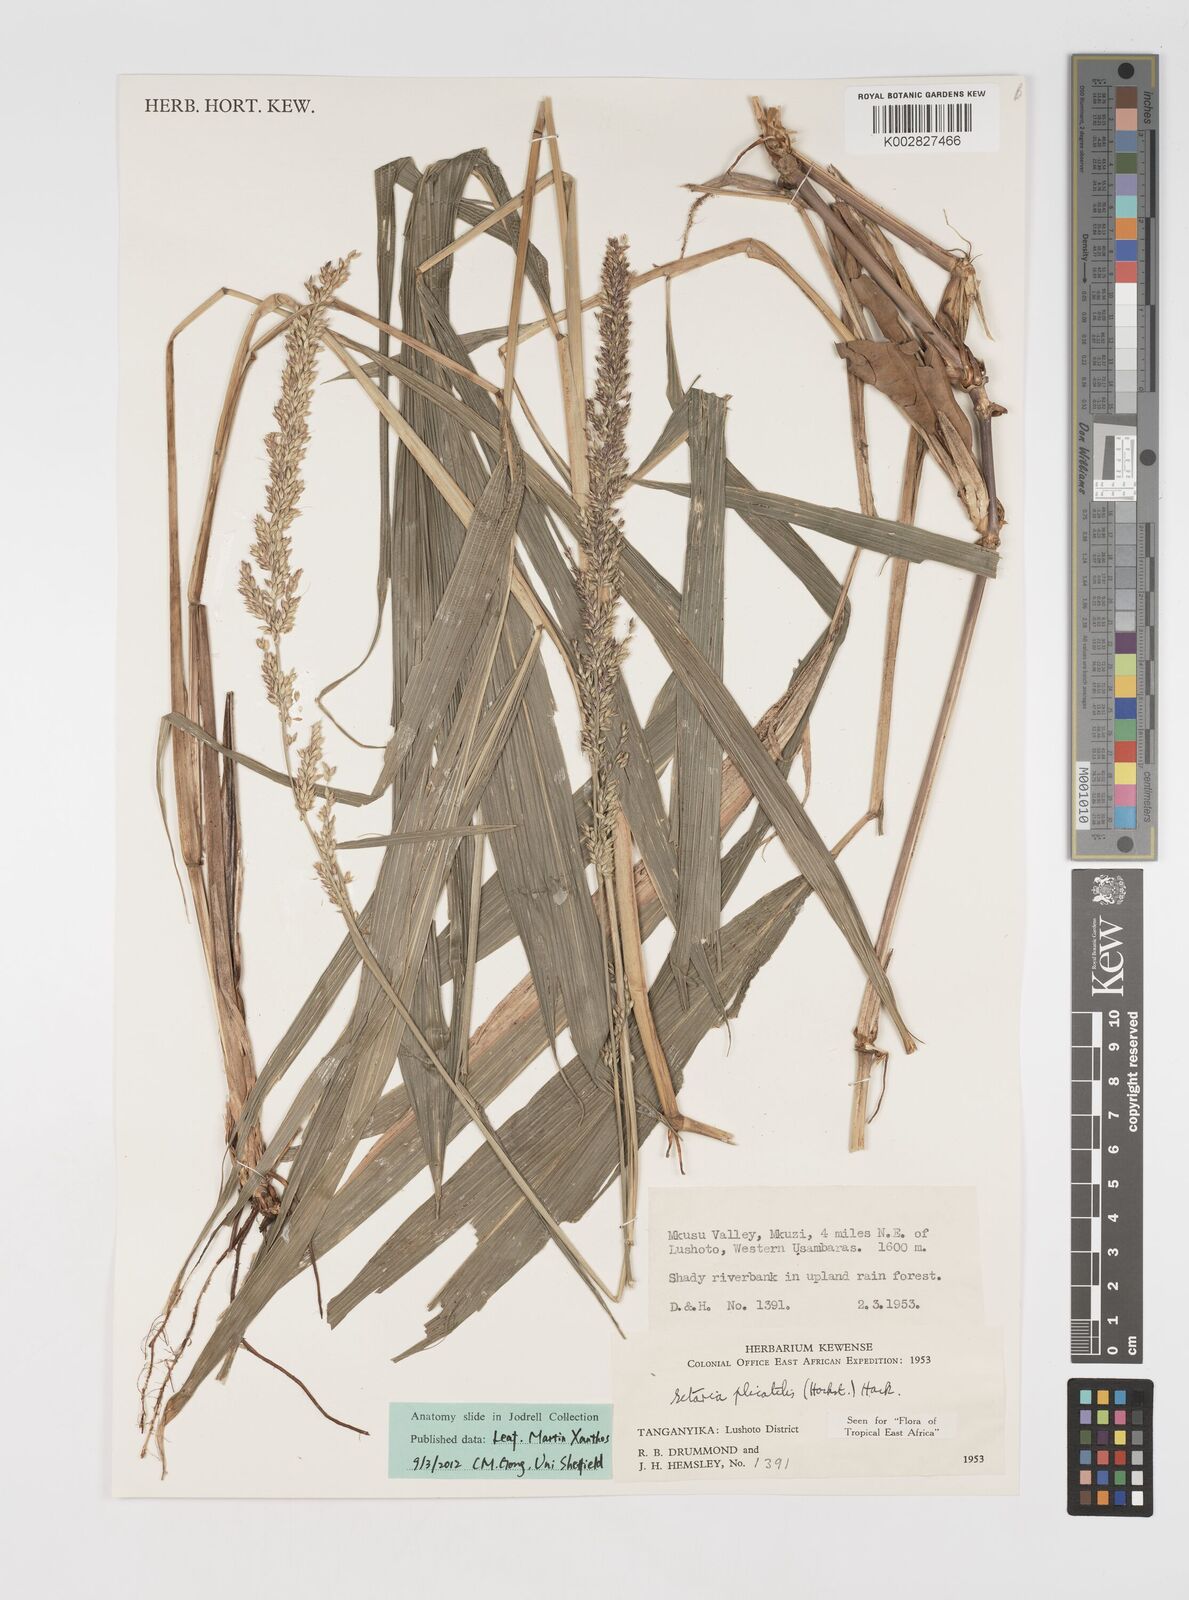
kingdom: Plantae
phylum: Tracheophyta
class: Liliopsida
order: Poales
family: Poaceae
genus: Setaria
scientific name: Setaria megaphylla
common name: Bigleaf bristlegrass
